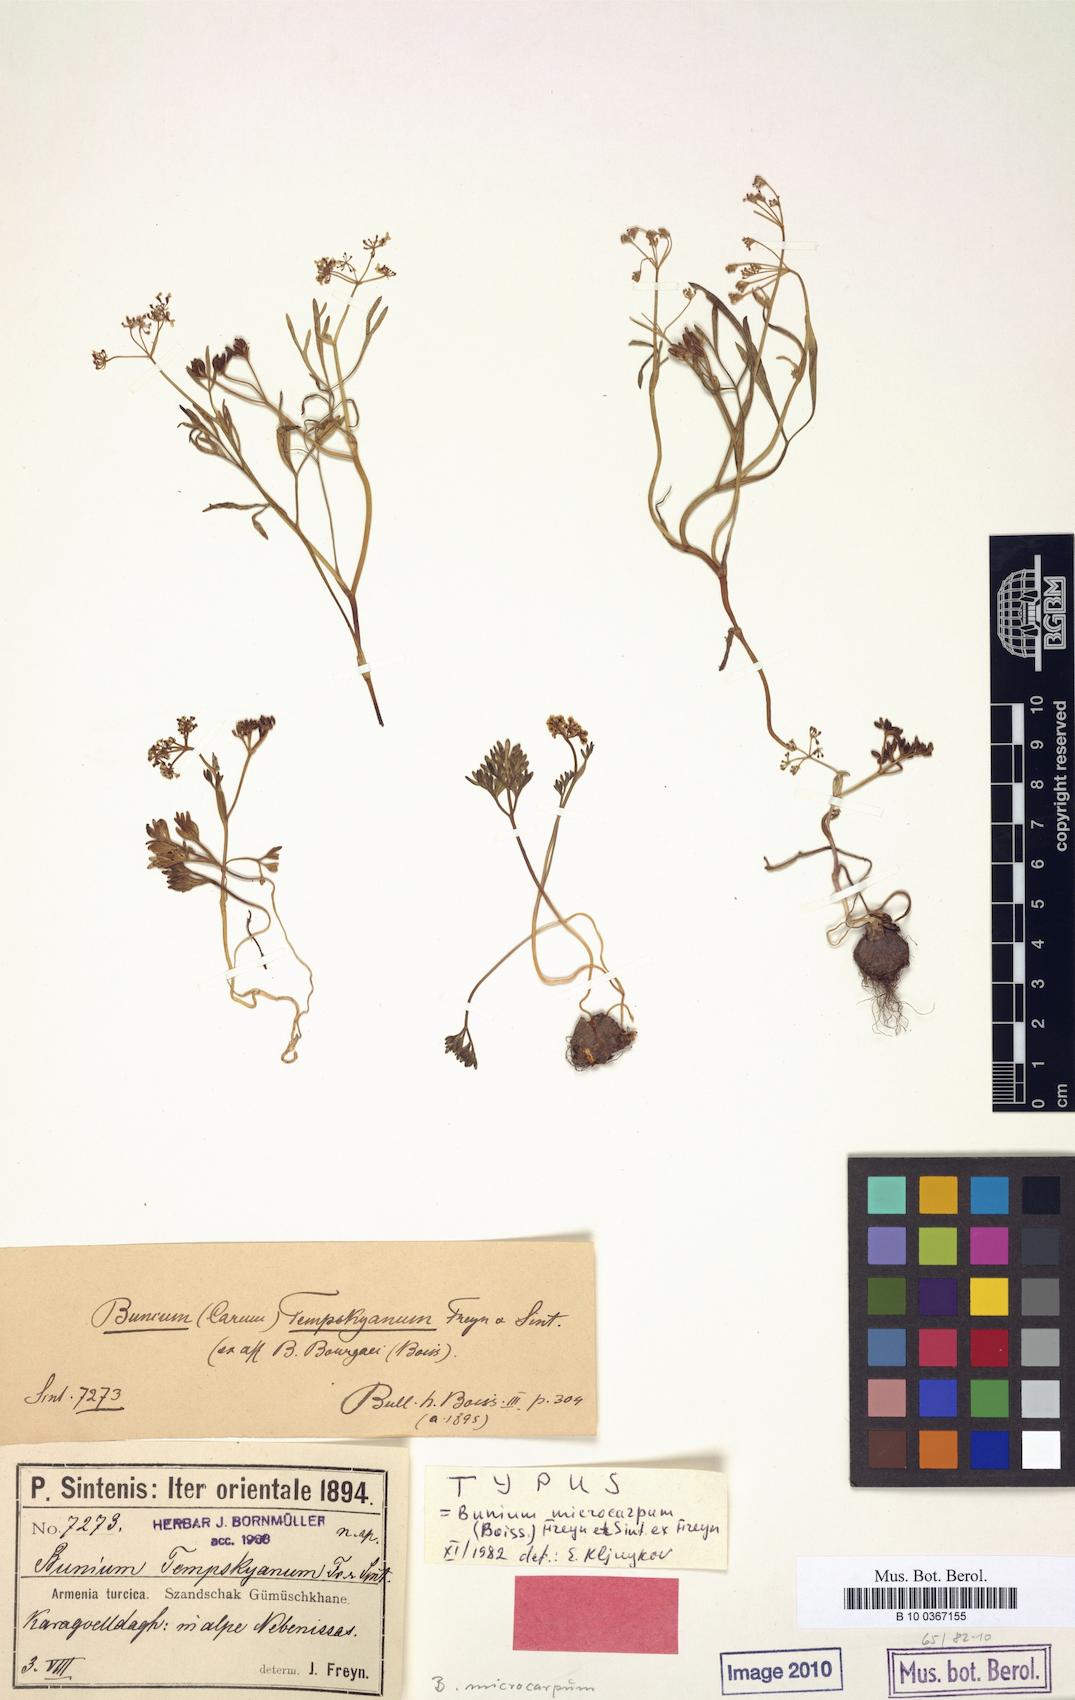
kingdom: Plantae
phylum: Tracheophyta
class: Magnoliopsida
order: Apiales
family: Apiaceae
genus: Bunium
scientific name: Bunium microcarpum
